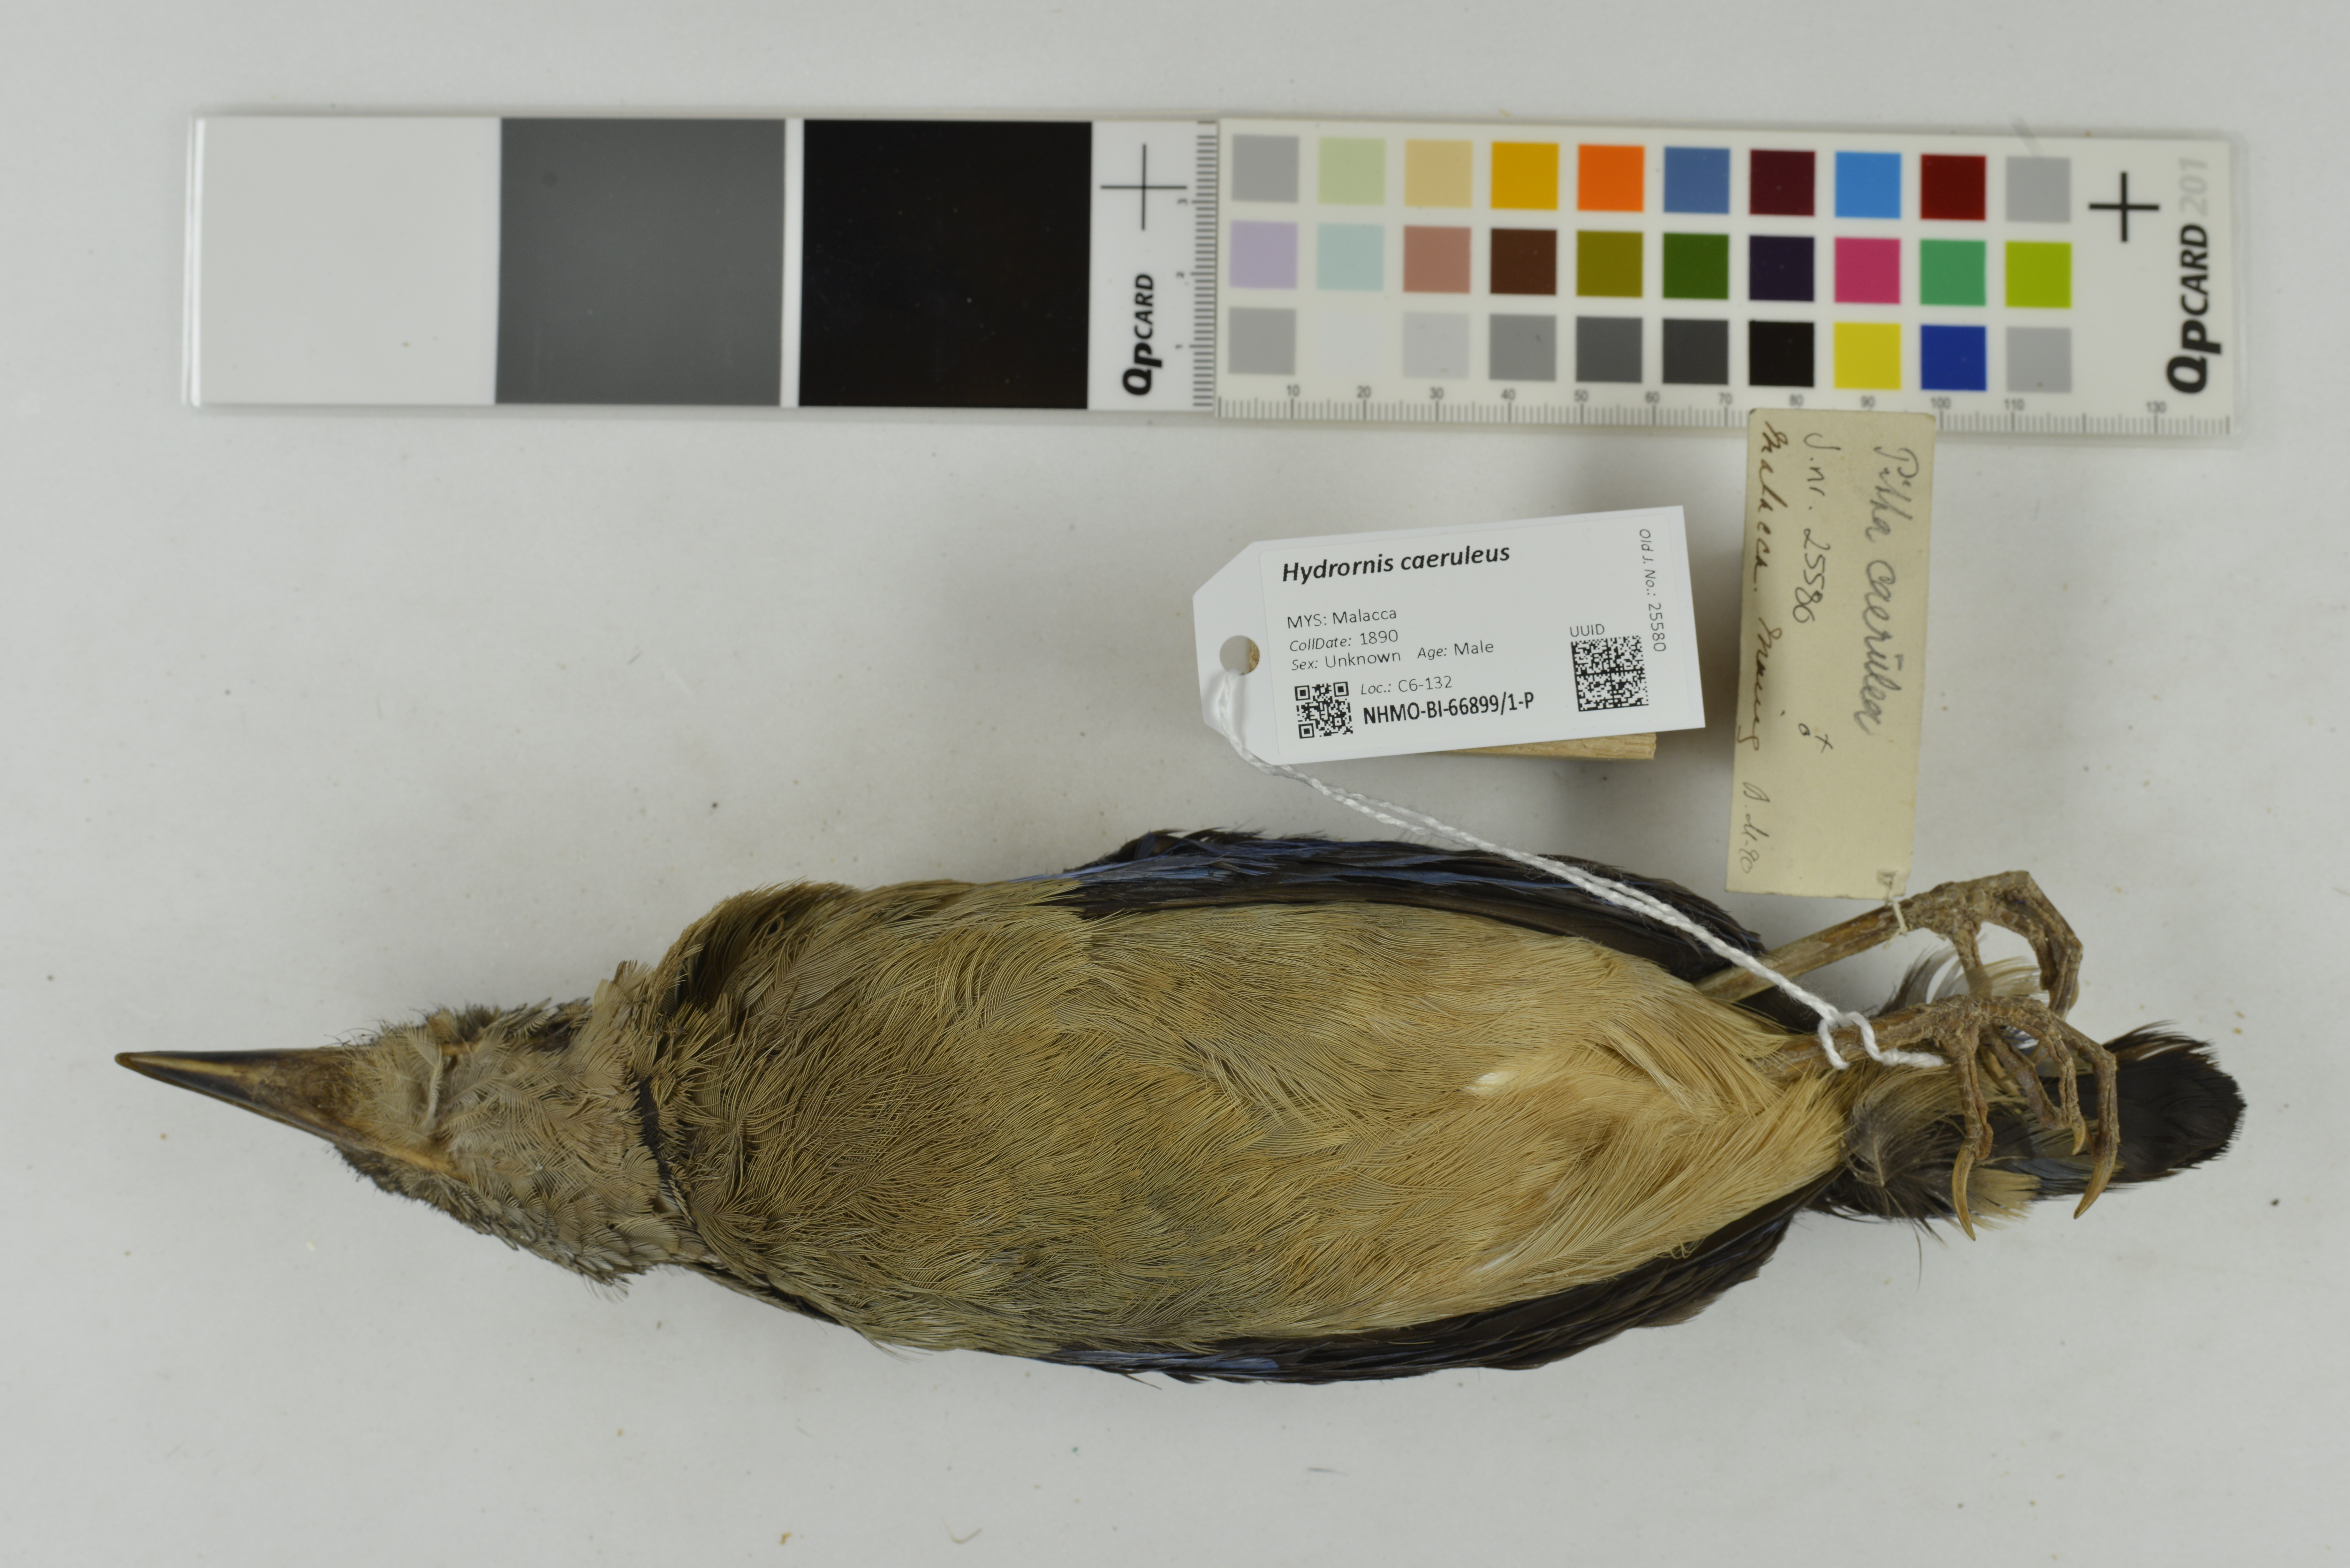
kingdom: Animalia
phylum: Chordata
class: Aves
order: Passeriformes
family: Pittidae
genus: Pitta
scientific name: Pitta caerulea
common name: Giant pitta
